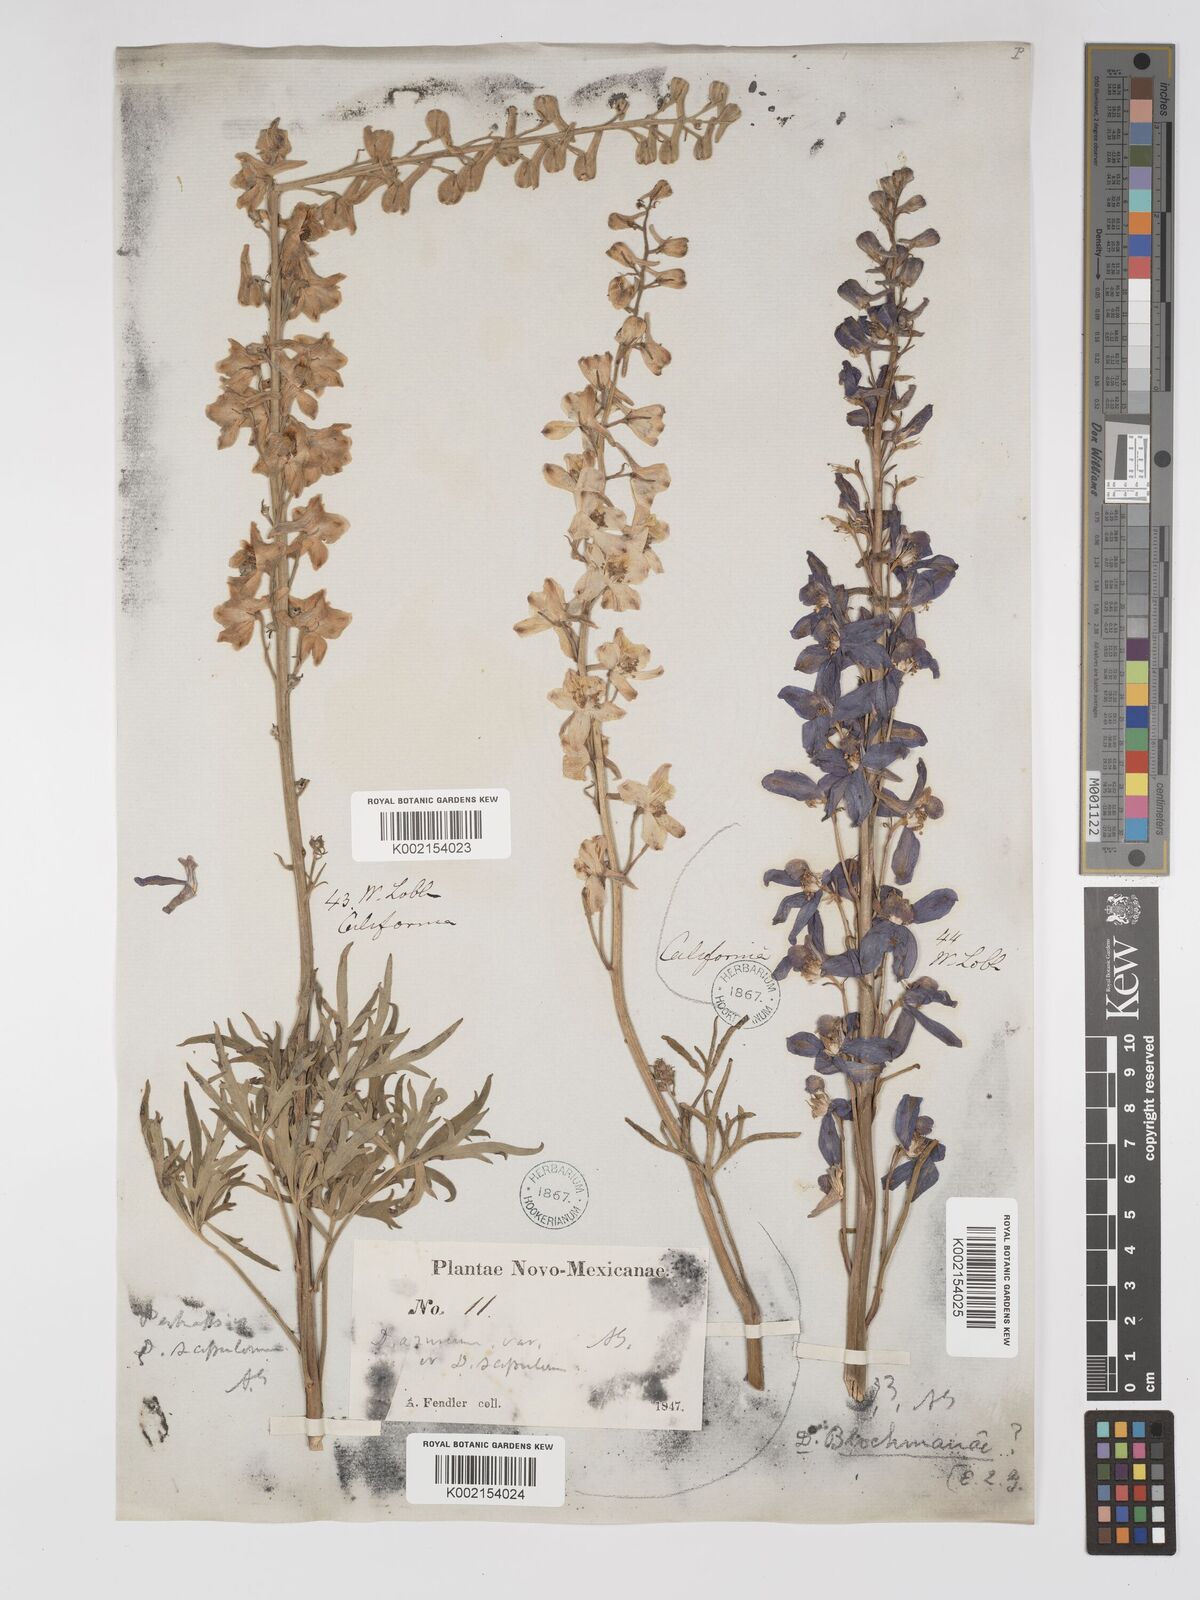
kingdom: Plantae
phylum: Tracheophyta
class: Magnoliopsida
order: Ranunculales
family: Ranunculaceae
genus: Delphinium
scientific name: Delphinium
